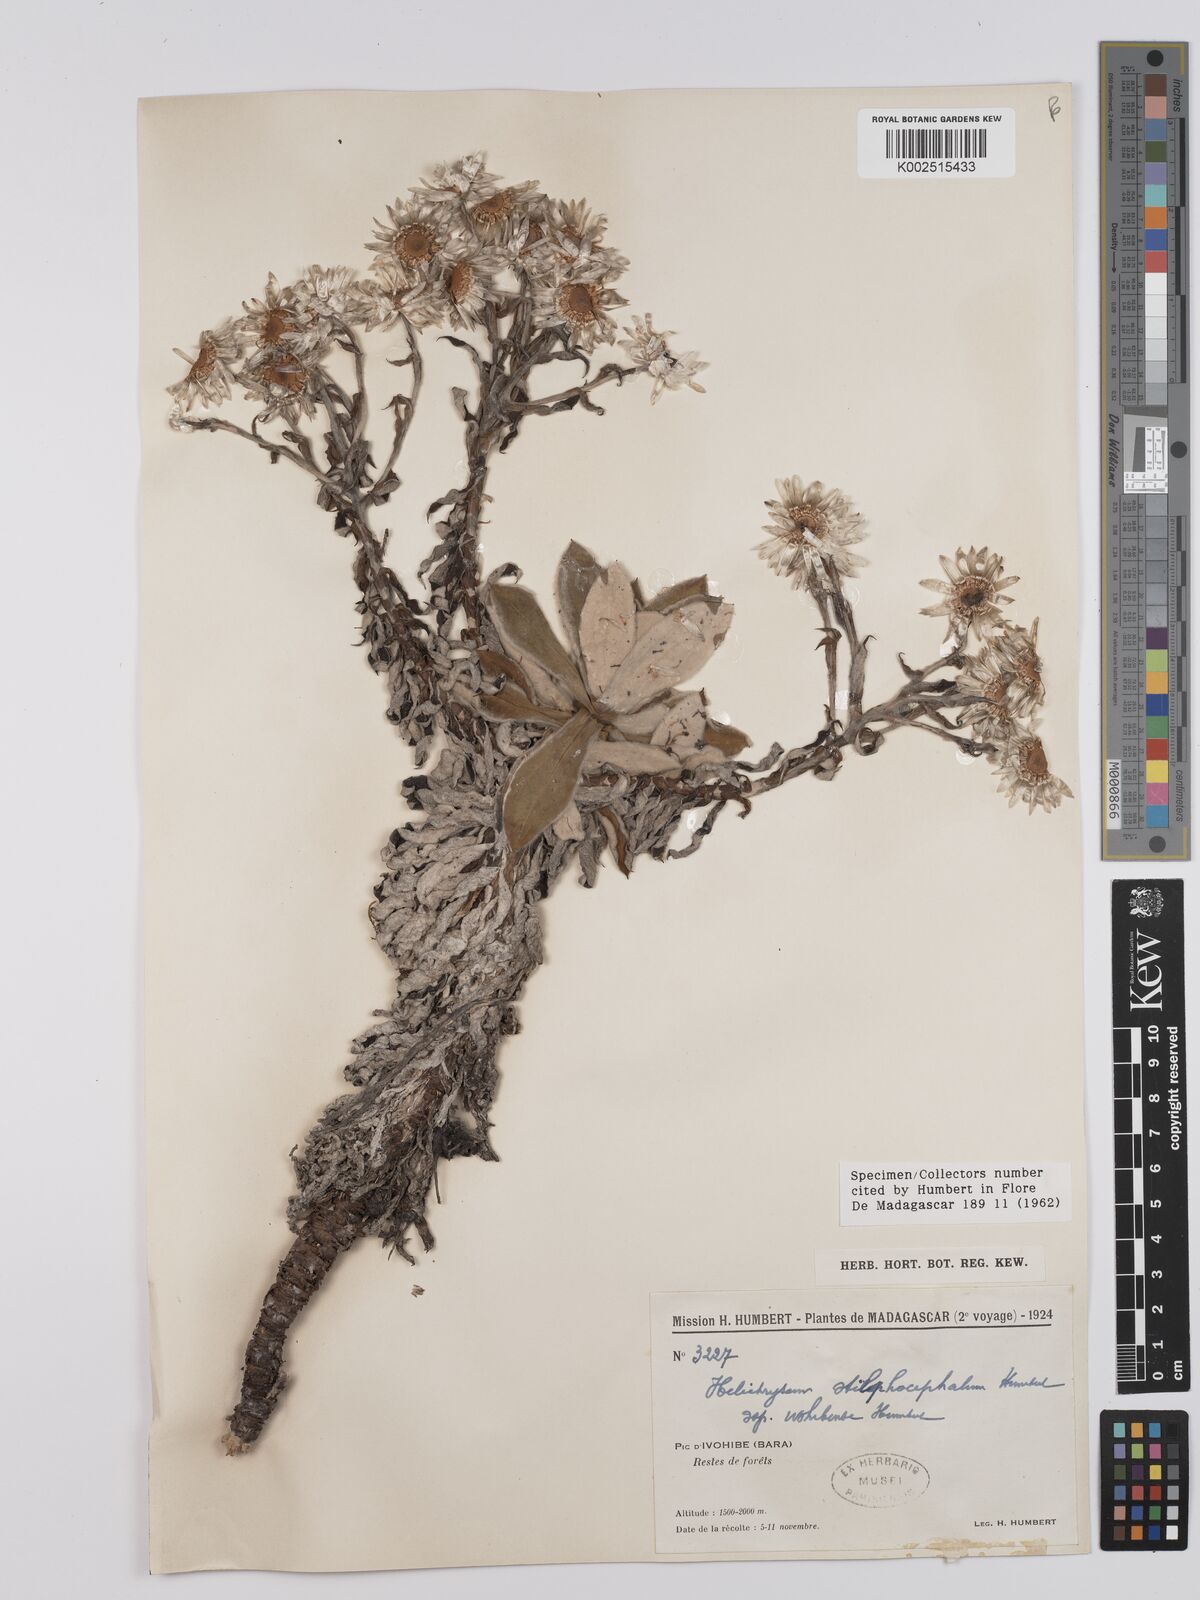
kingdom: Plantae
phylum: Tracheophyta
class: Magnoliopsida
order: Asterales
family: Asteraceae
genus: Helichrysum
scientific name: Helichrysum barorum
